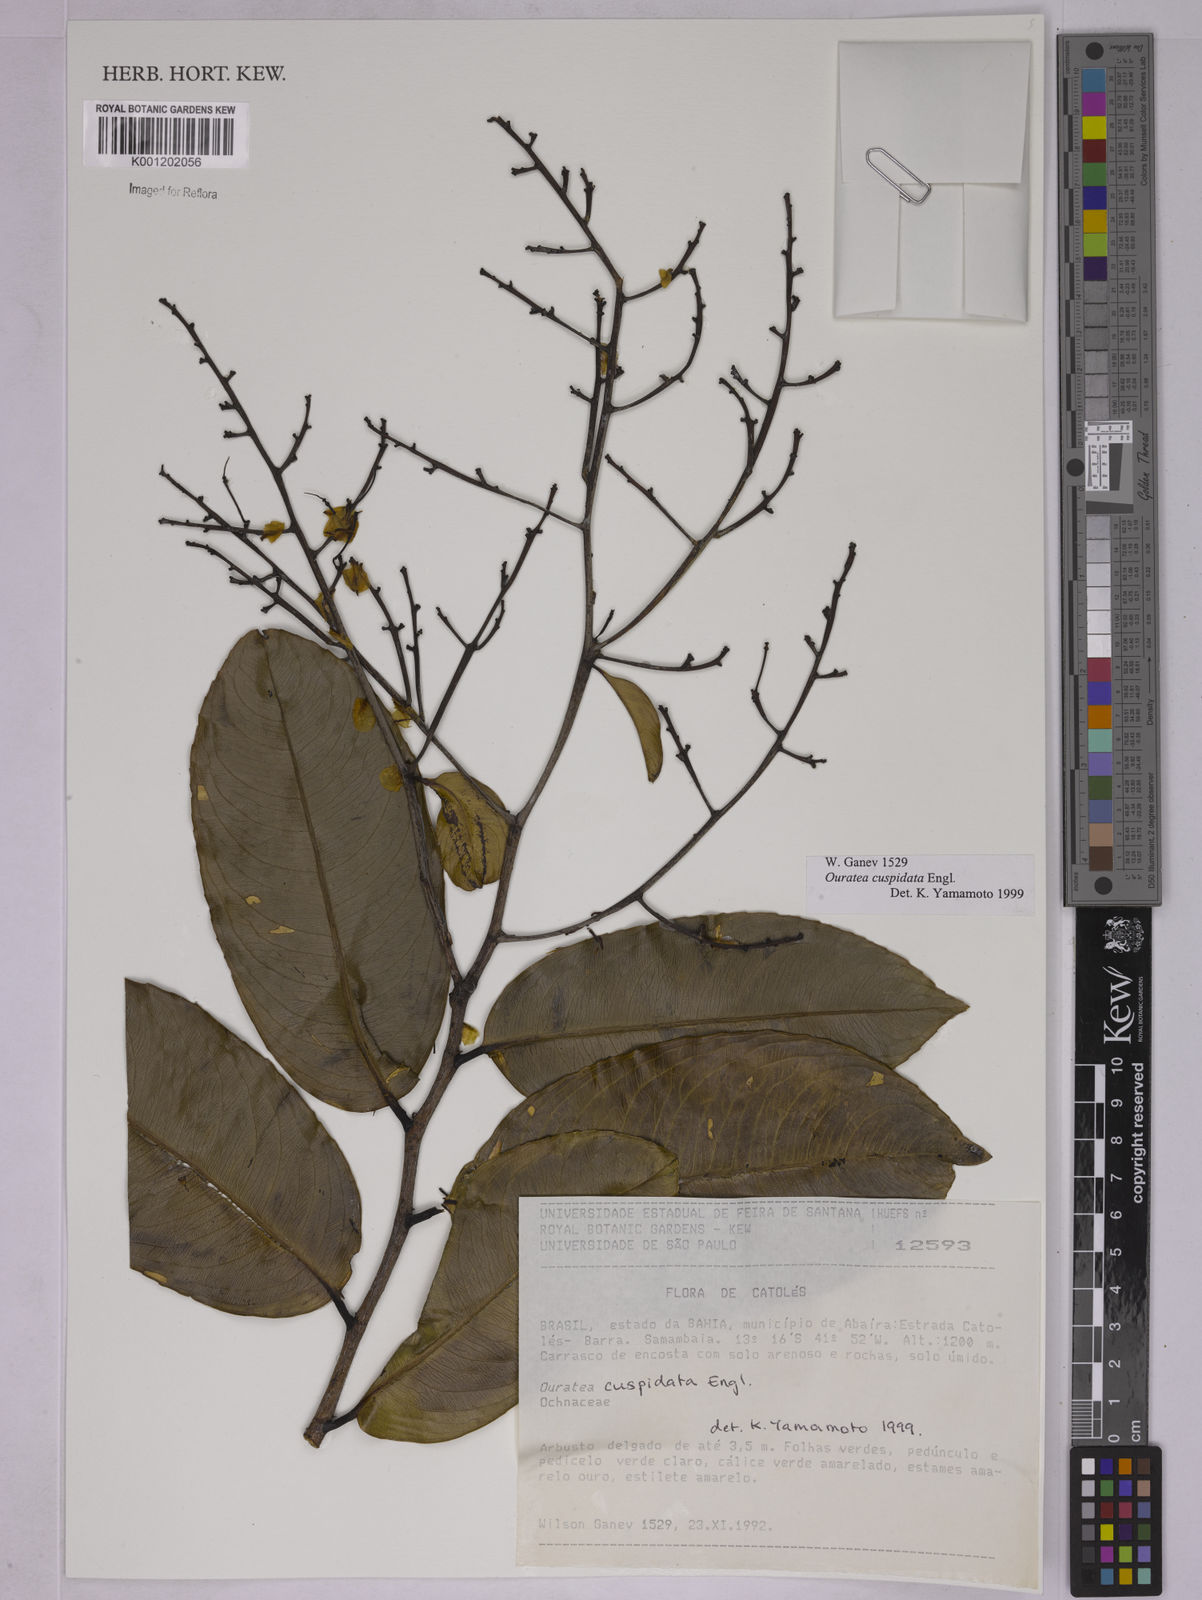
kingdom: Plantae
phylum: Tracheophyta
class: Magnoliopsida
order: Malpighiales
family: Ochnaceae
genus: Ouratea
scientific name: Ouratea cuspidata
